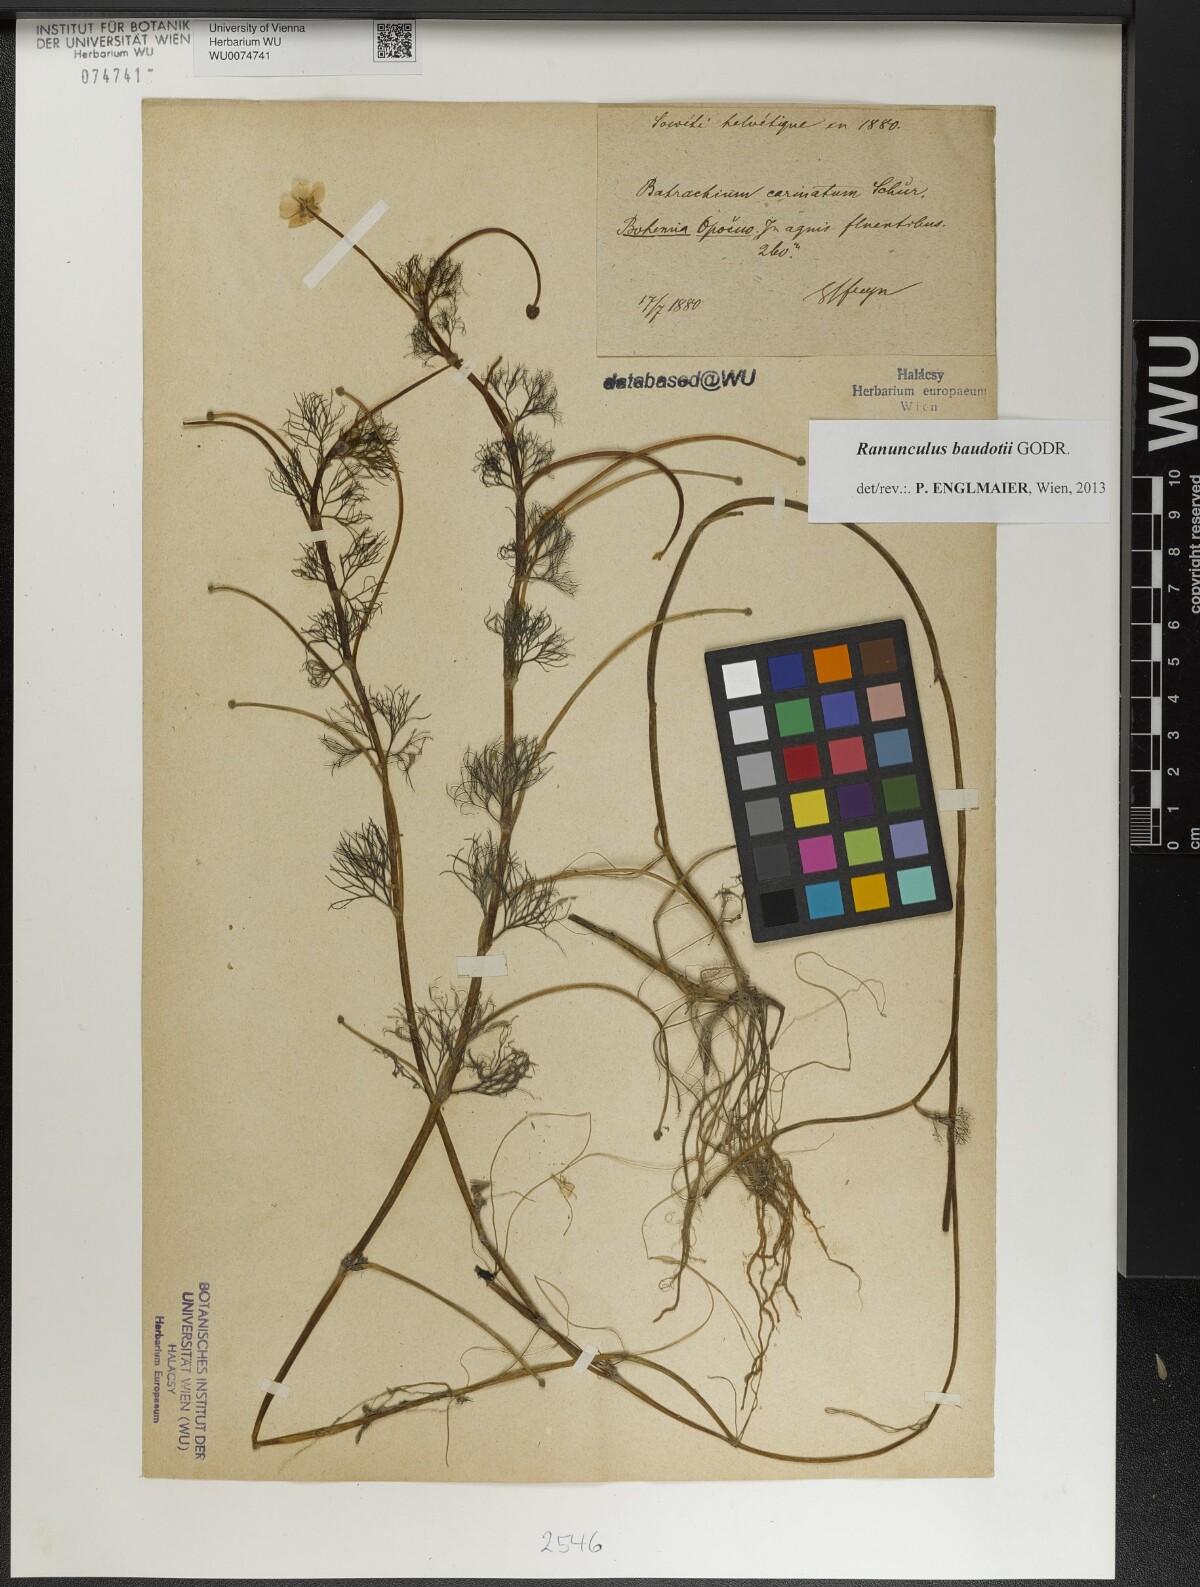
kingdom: Plantae
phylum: Tracheophyta
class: Magnoliopsida
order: Ranunculales
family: Ranunculaceae
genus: Ranunculus
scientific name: Ranunculus peltatus
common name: Pond water-crowfoot
